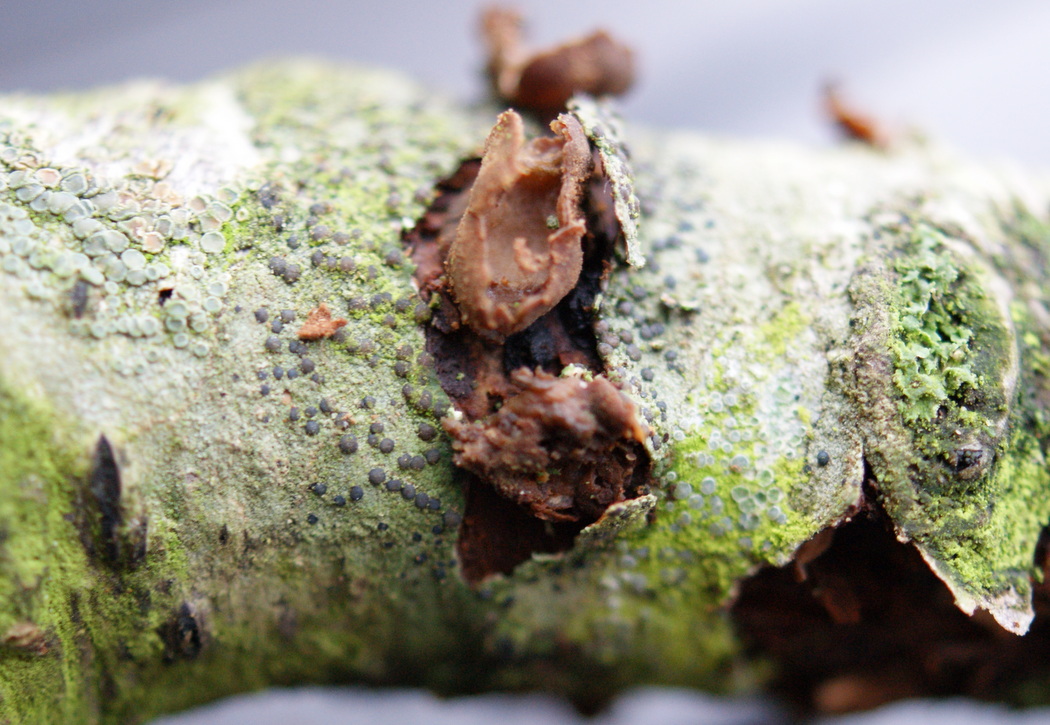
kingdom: Fungi
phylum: Ascomycota
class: Leotiomycetes
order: Helotiales
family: Cenangiaceae
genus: Encoelia
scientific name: Encoelia furfuracea
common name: hassel-læderskive
